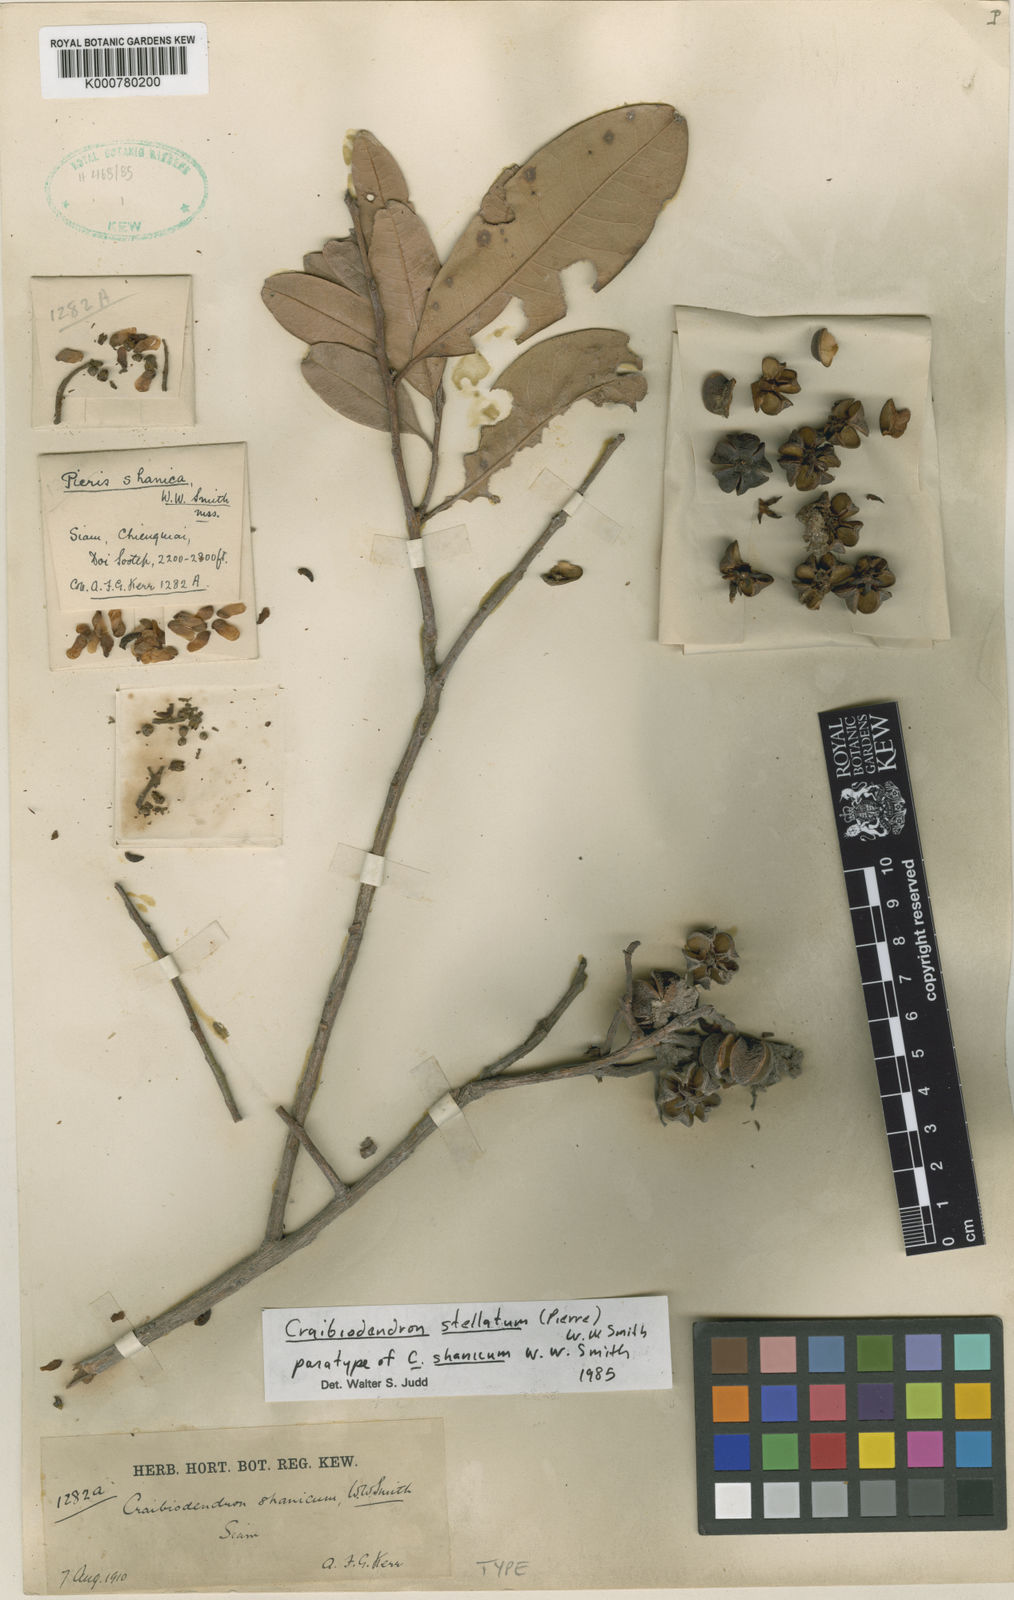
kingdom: Plantae
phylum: Tracheophyta
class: Magnoliopsida
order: Ericales
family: Ericaceae
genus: Craibiodendron
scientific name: Craibiodendron stellatum
